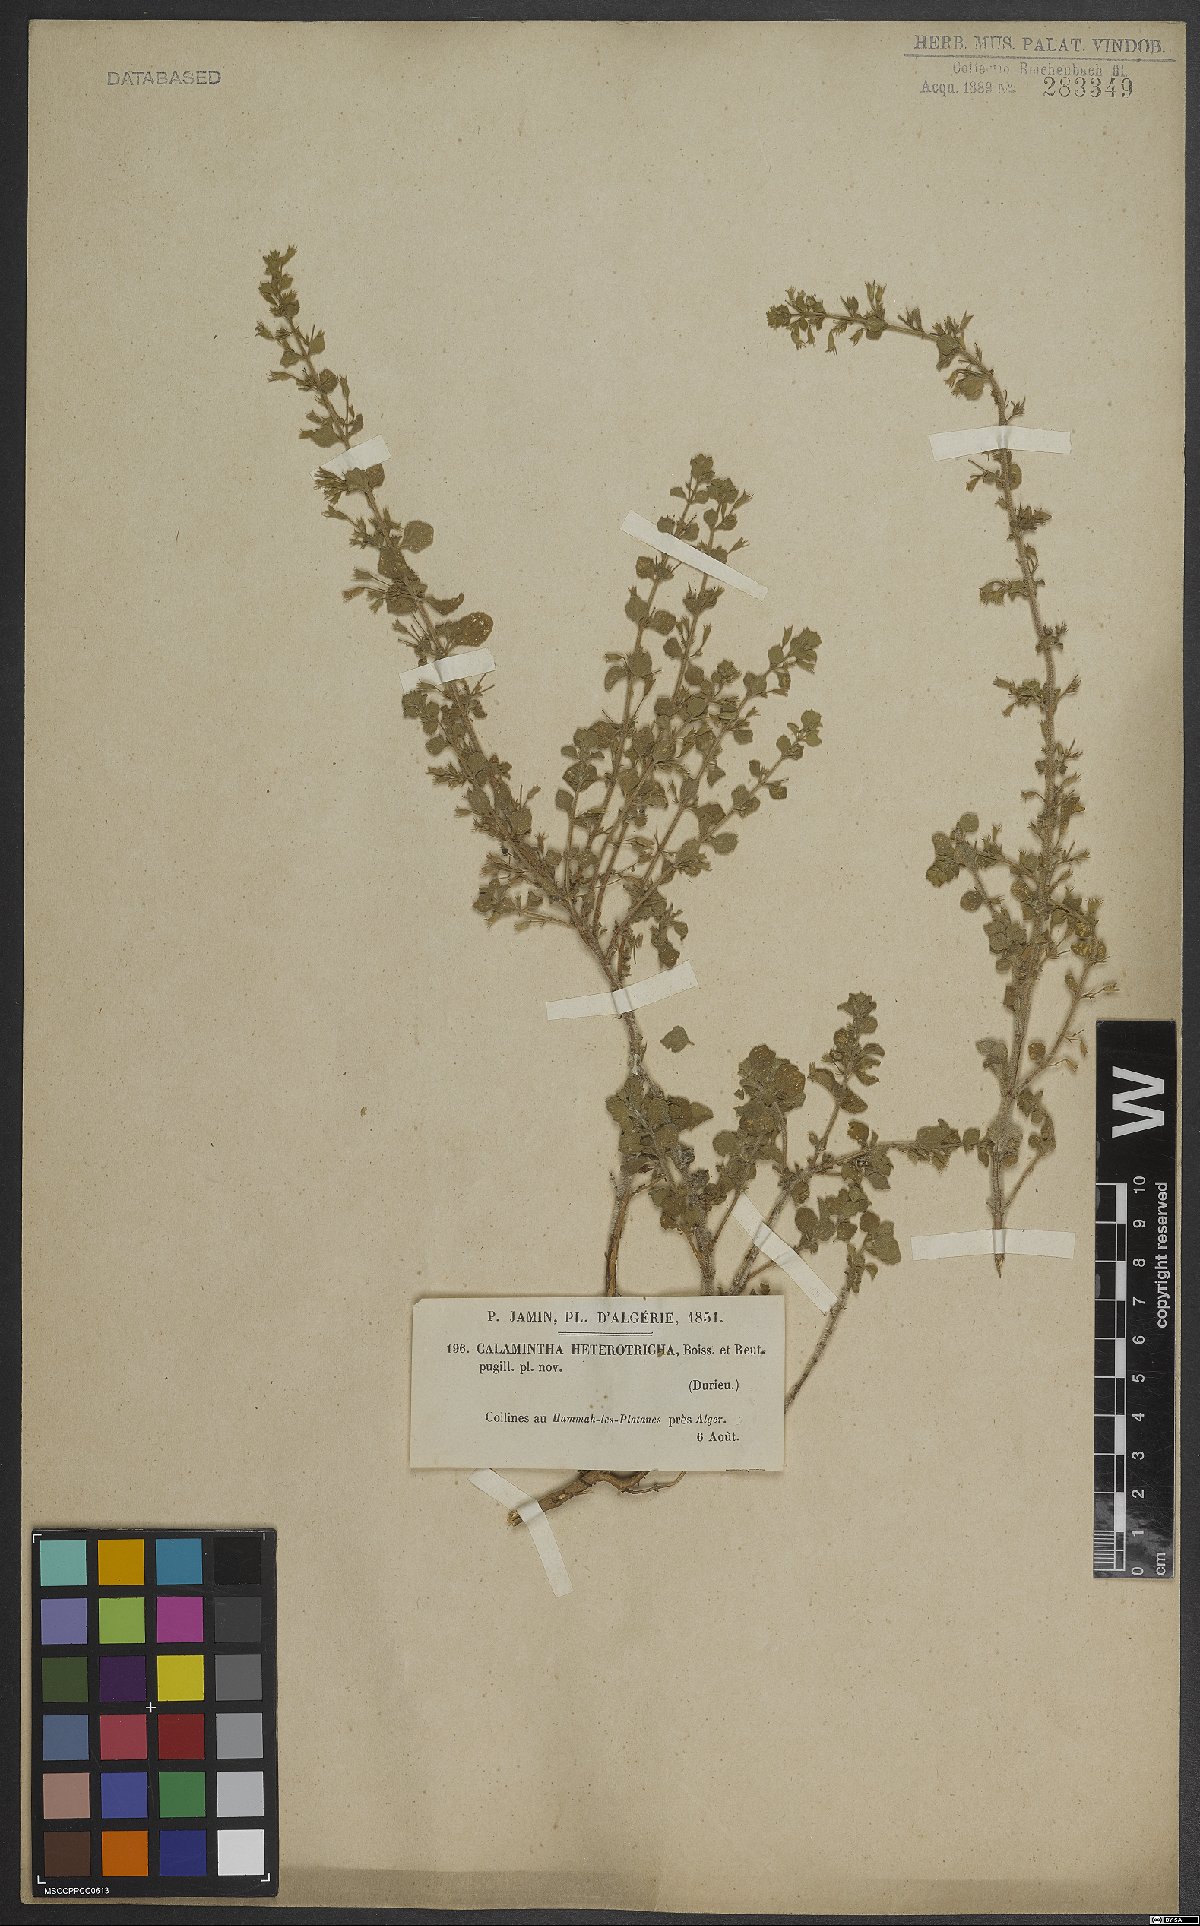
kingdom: Plantae
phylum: Tracheophyta
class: Magnoliopsida
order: Lamiales
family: Lamiaceae
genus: Clinopodium
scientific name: Clinopodium heterotrichum
